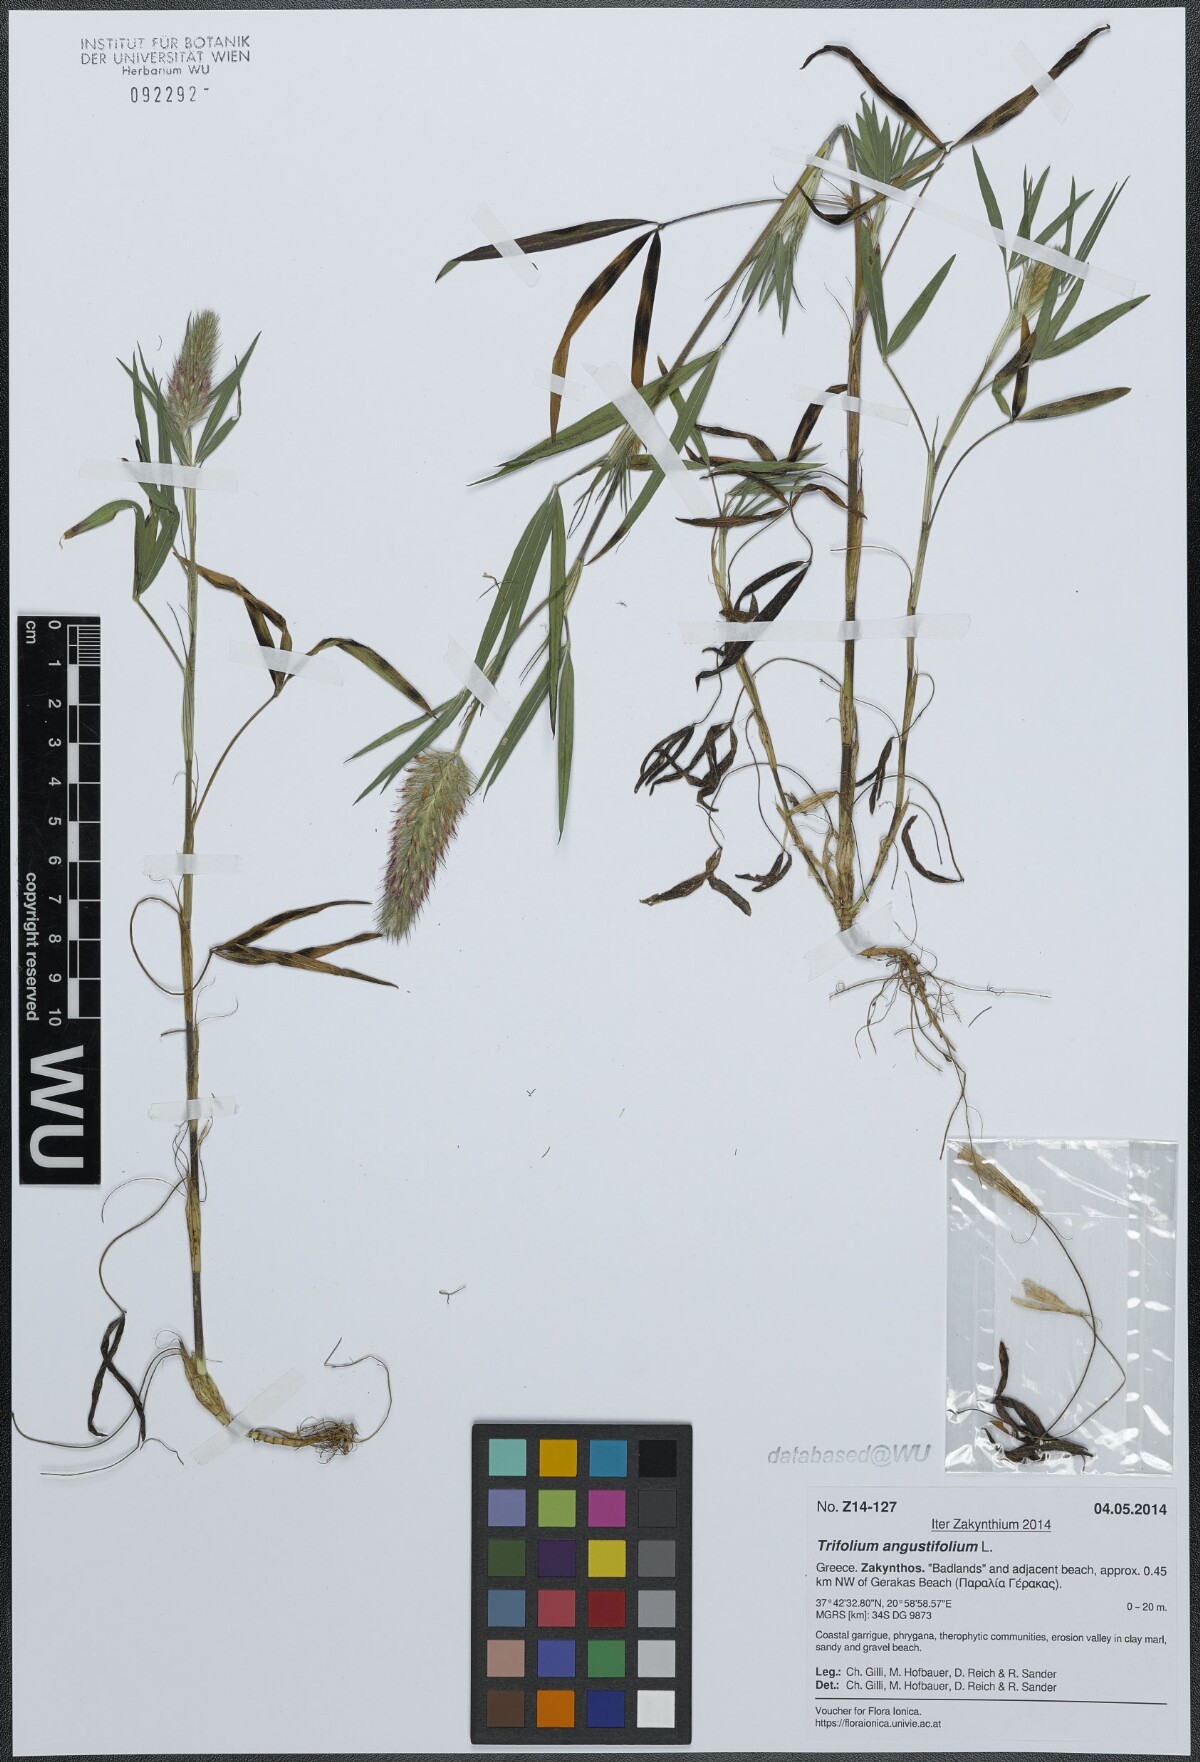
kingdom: Plantae
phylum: Tracheophyta
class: Magnoliopsida
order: Fabales
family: Fabaceae
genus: Trifolium
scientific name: Trifolium angustifolium
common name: Narrow clover
